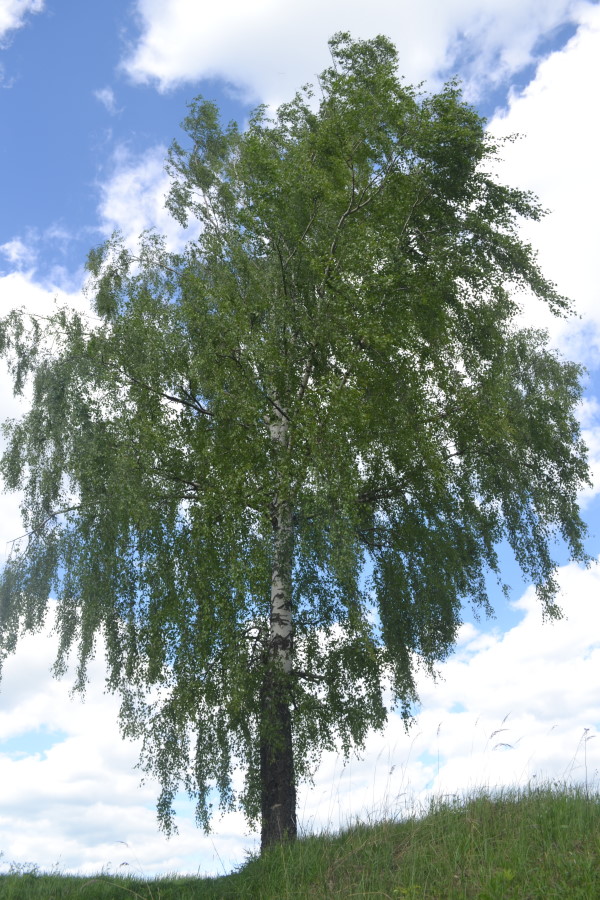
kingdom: Plantae
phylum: Tracheophyta
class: Magnoliopsida
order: Fagales
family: Betulaceae
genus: Betula
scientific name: Betula pendula
